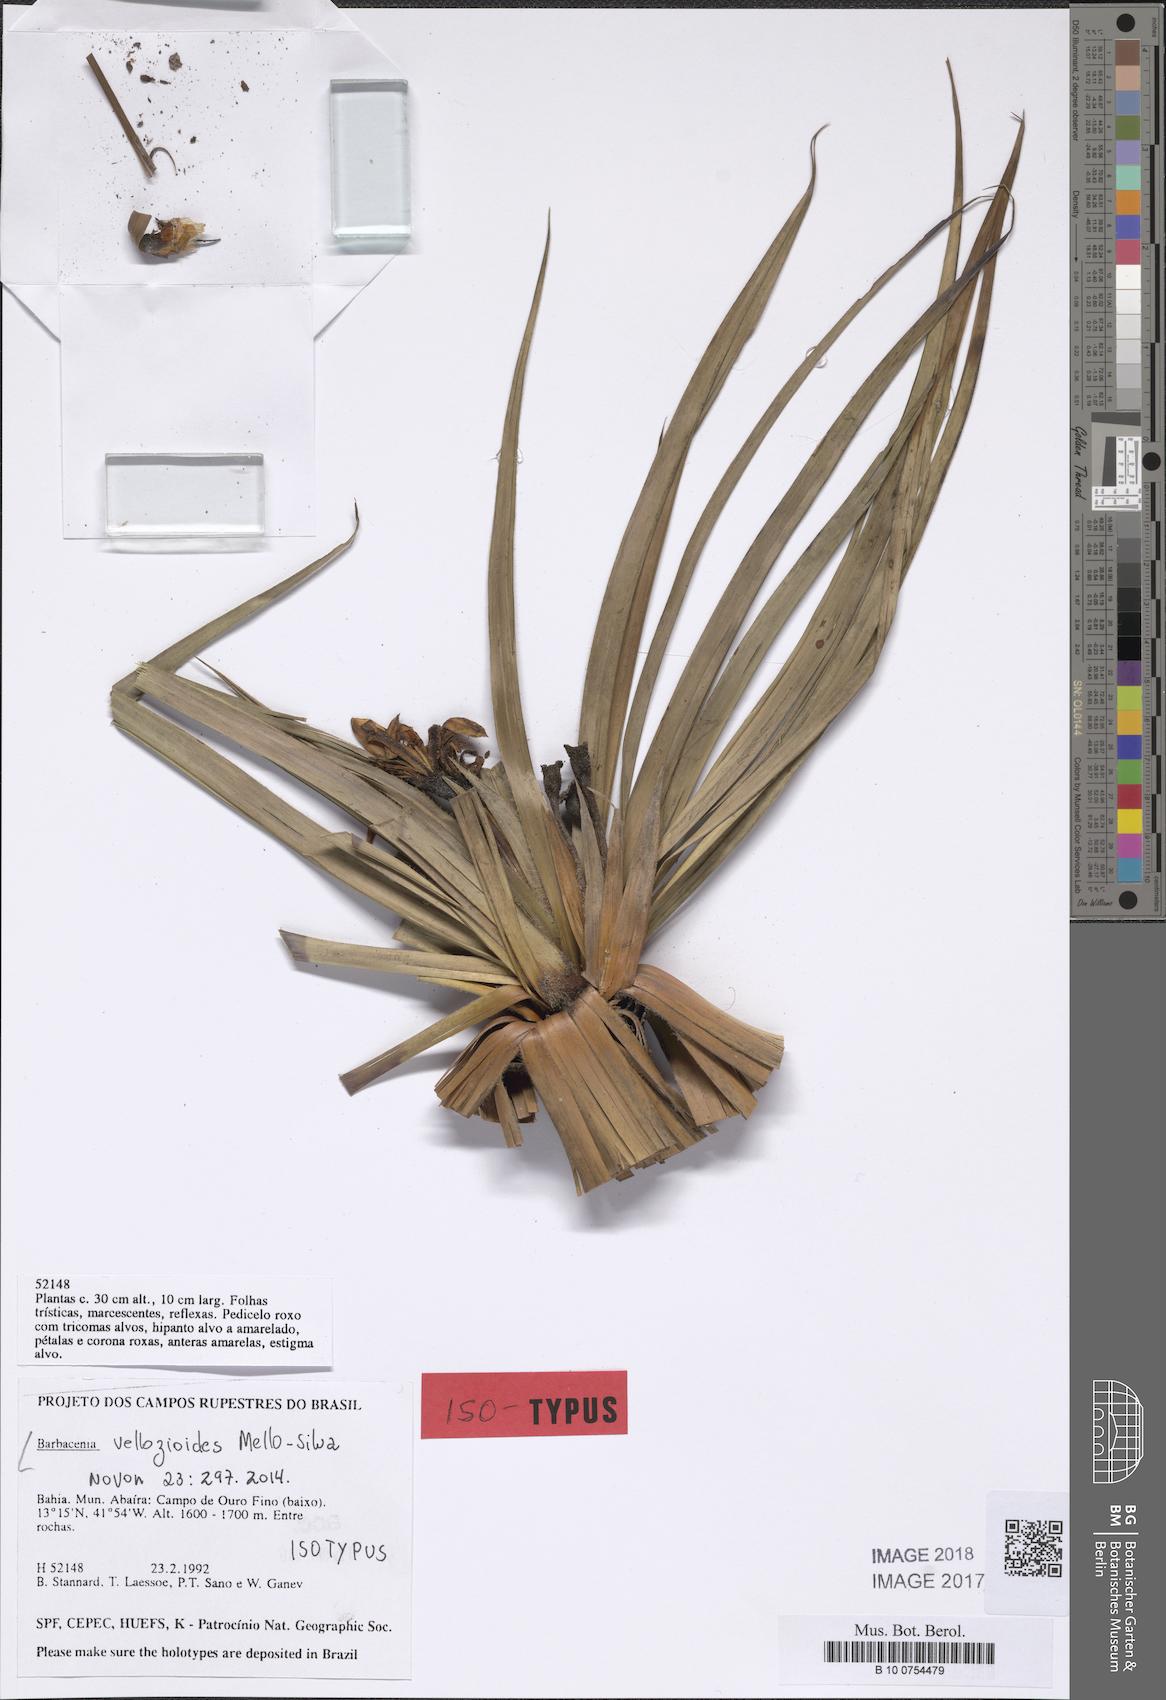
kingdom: Plantae
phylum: Tracheophyta
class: Liliopsida
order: Pandanales
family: Velloziaceae
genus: Barbacenia
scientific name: Barbacenia vellozioides
